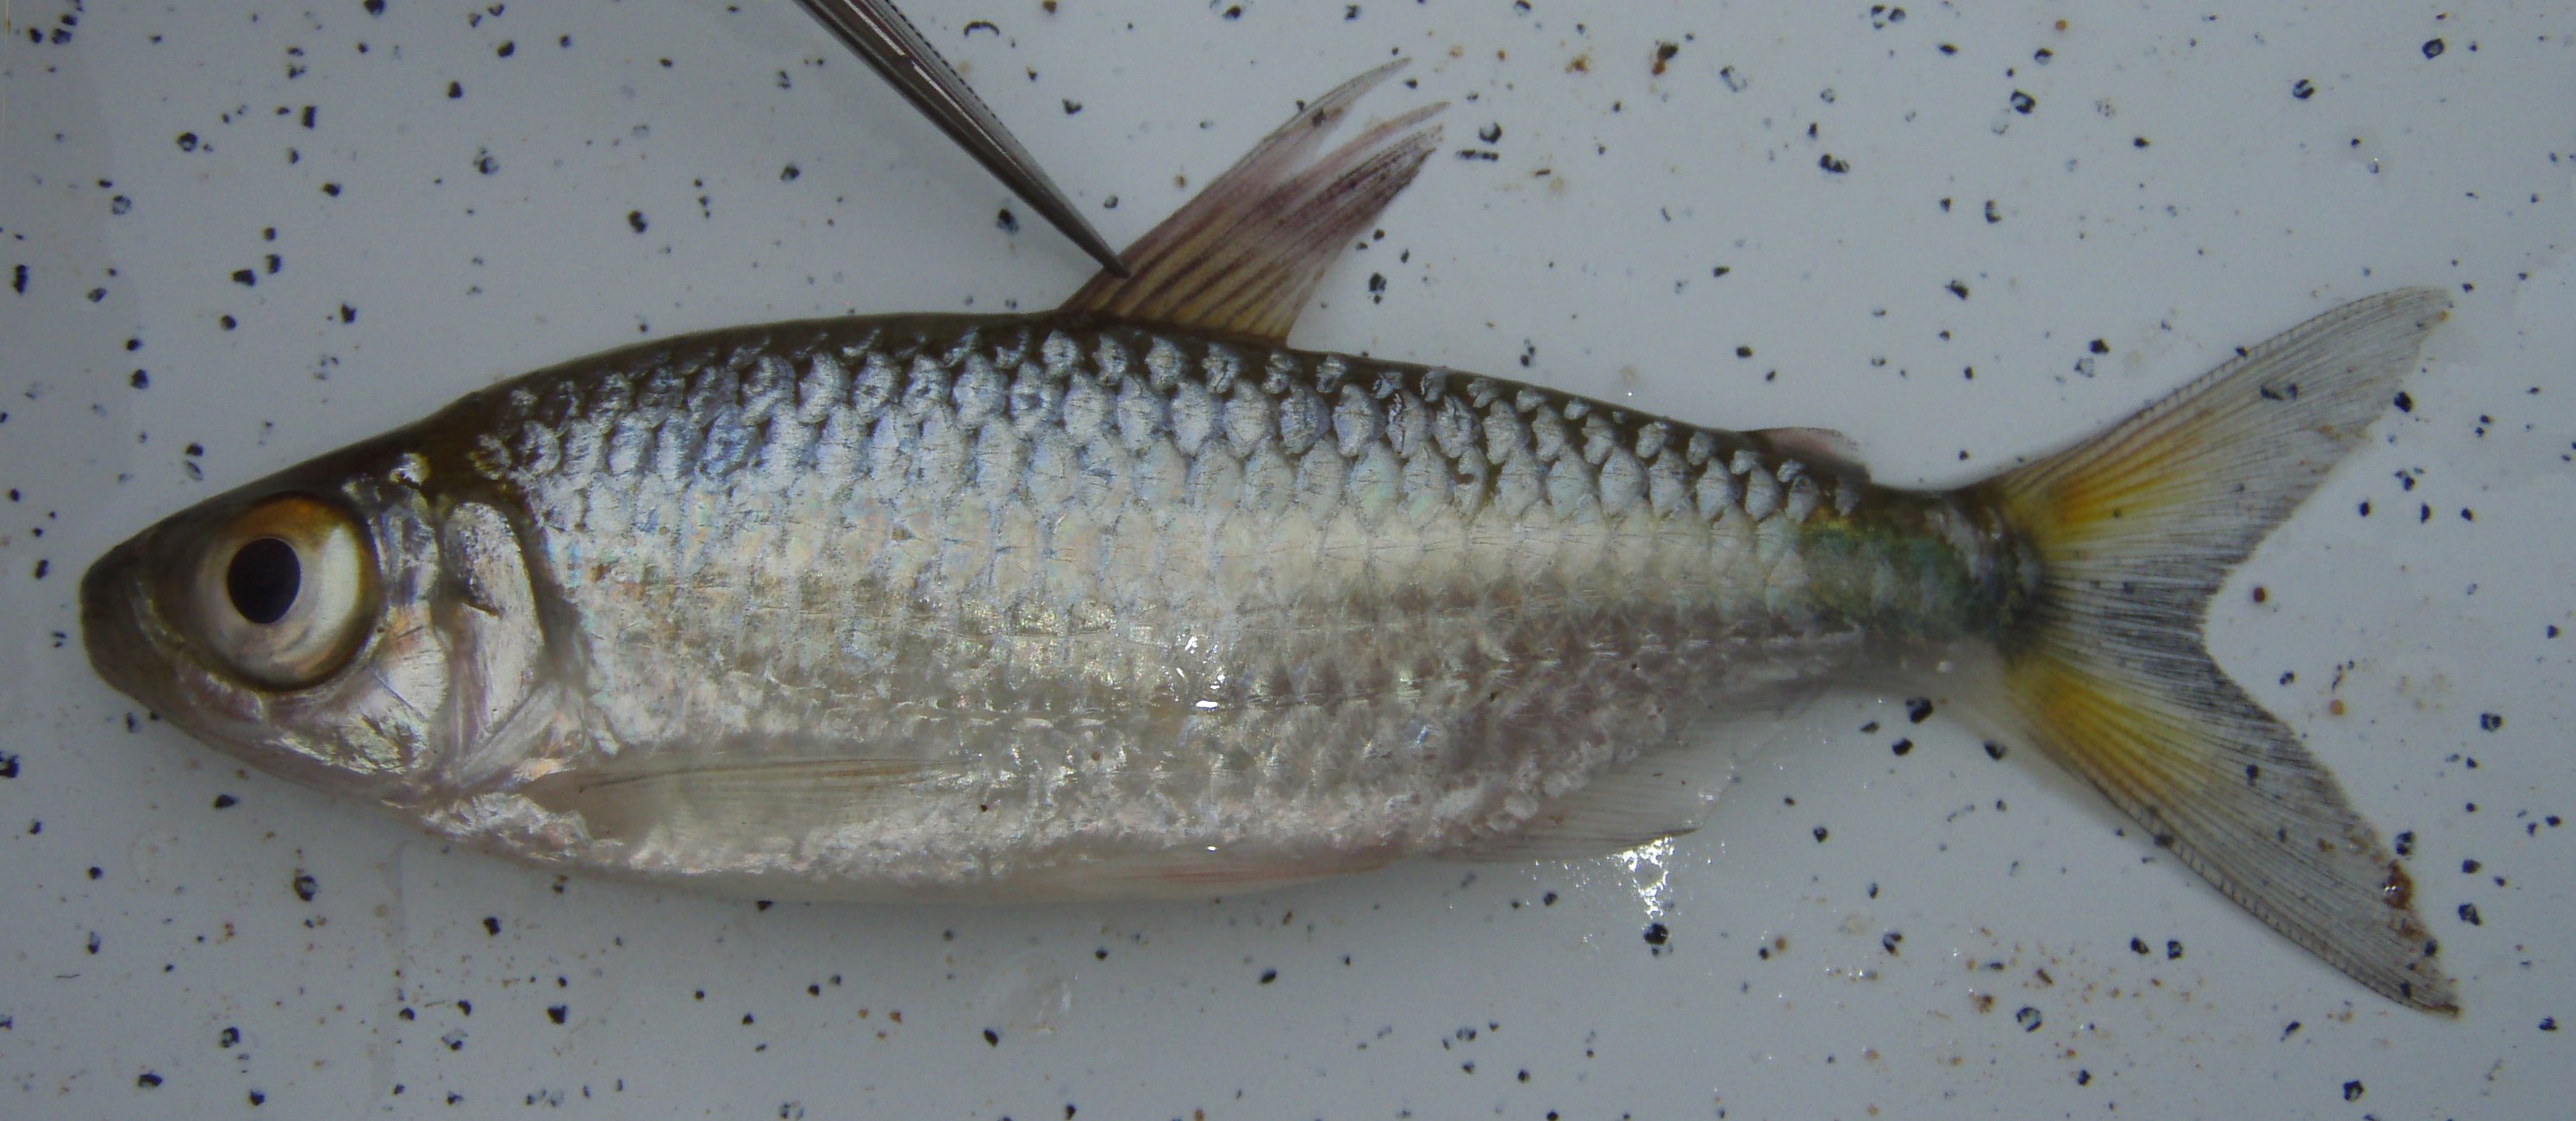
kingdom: Animalia
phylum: Chordata
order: Characiformes
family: Alestidae
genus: Brycinus
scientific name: Brycinus
